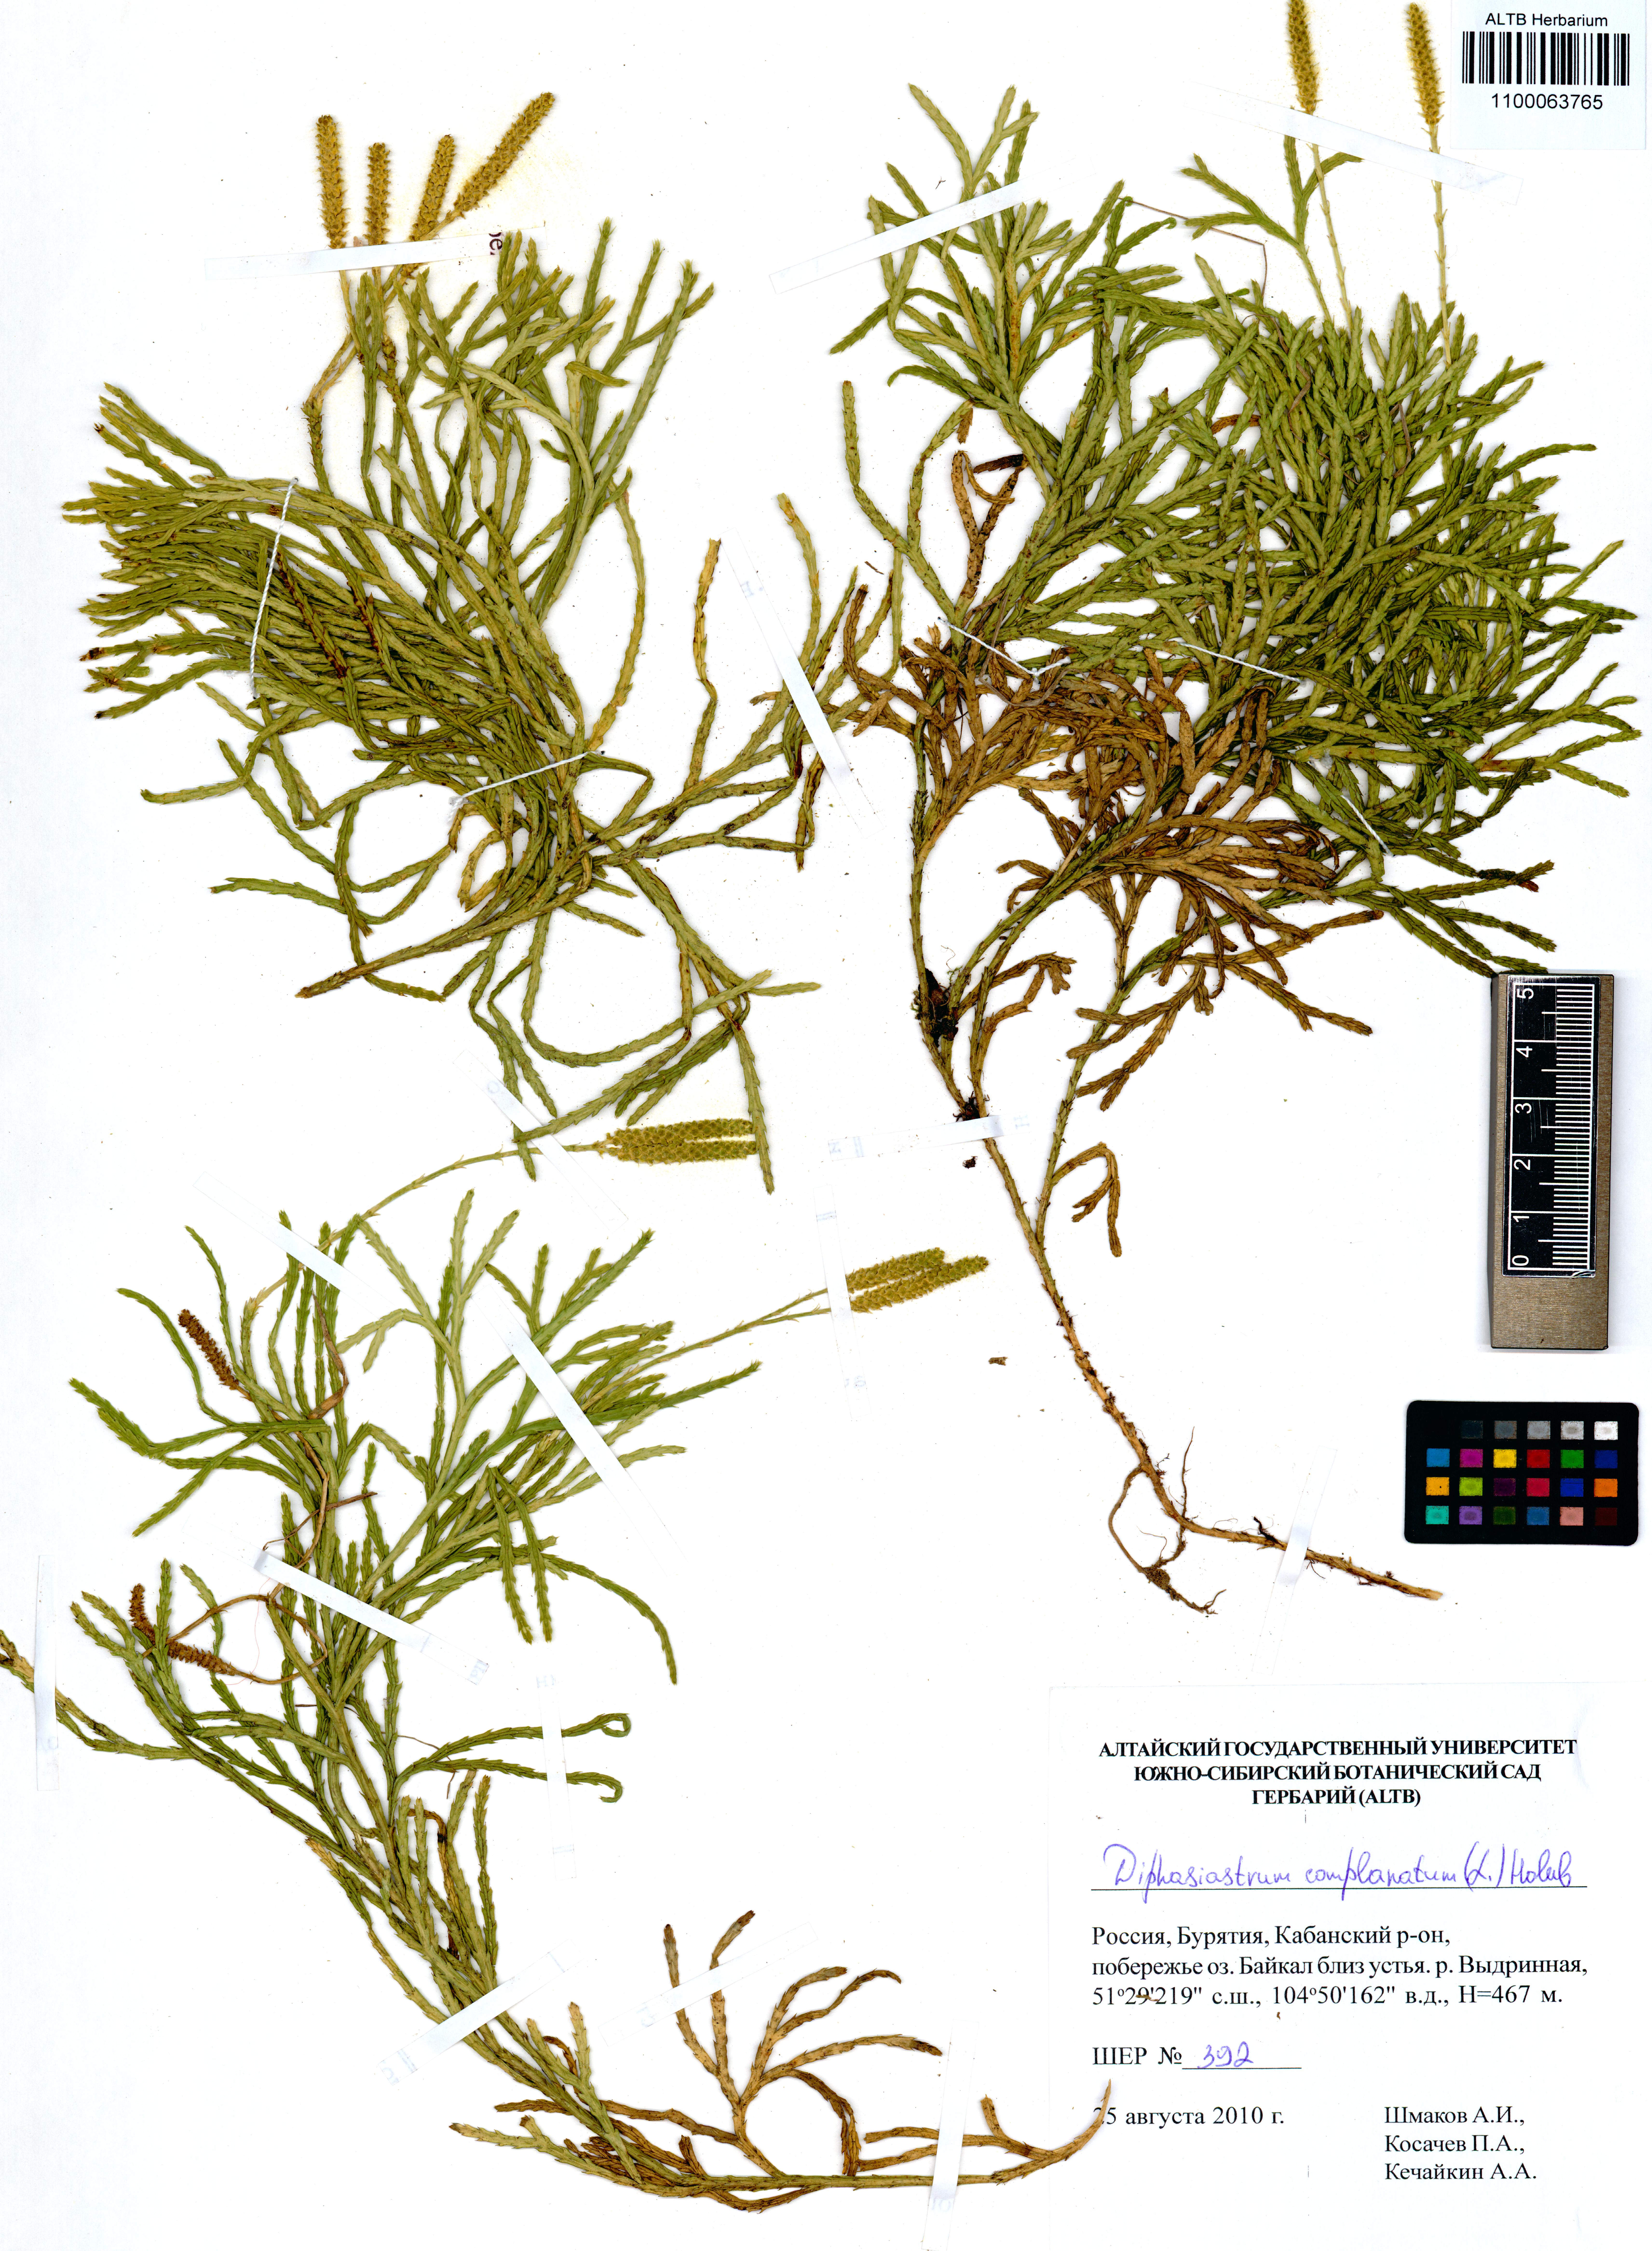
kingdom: Plantae
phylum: Tracheophyta
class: Lycopodiopsida
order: Lycopodiales
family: Lycopodiaceae
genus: Diphasiastrum
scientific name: Diphasiastrum complanatum
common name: Northern running-pine
